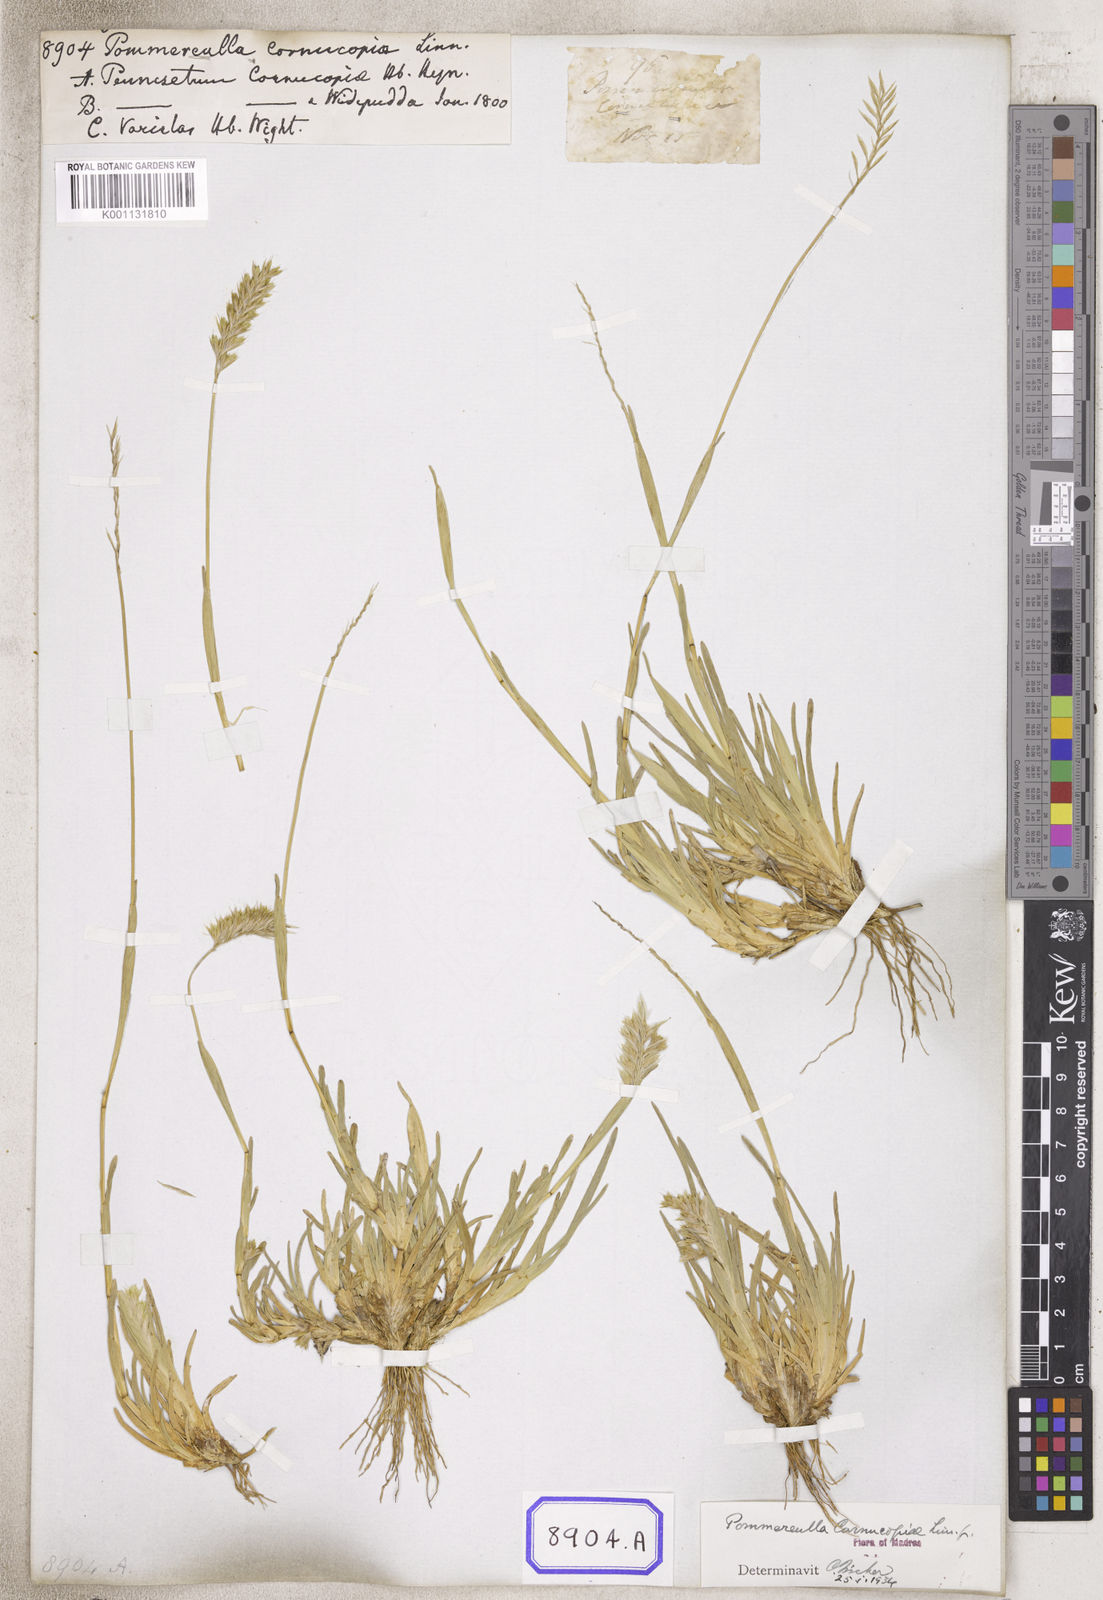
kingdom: Plantae
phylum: Tracheophyta
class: Liliopsida
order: Poales
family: Poaceae
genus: Pommereulla
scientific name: Pommereulla cornucopiae
